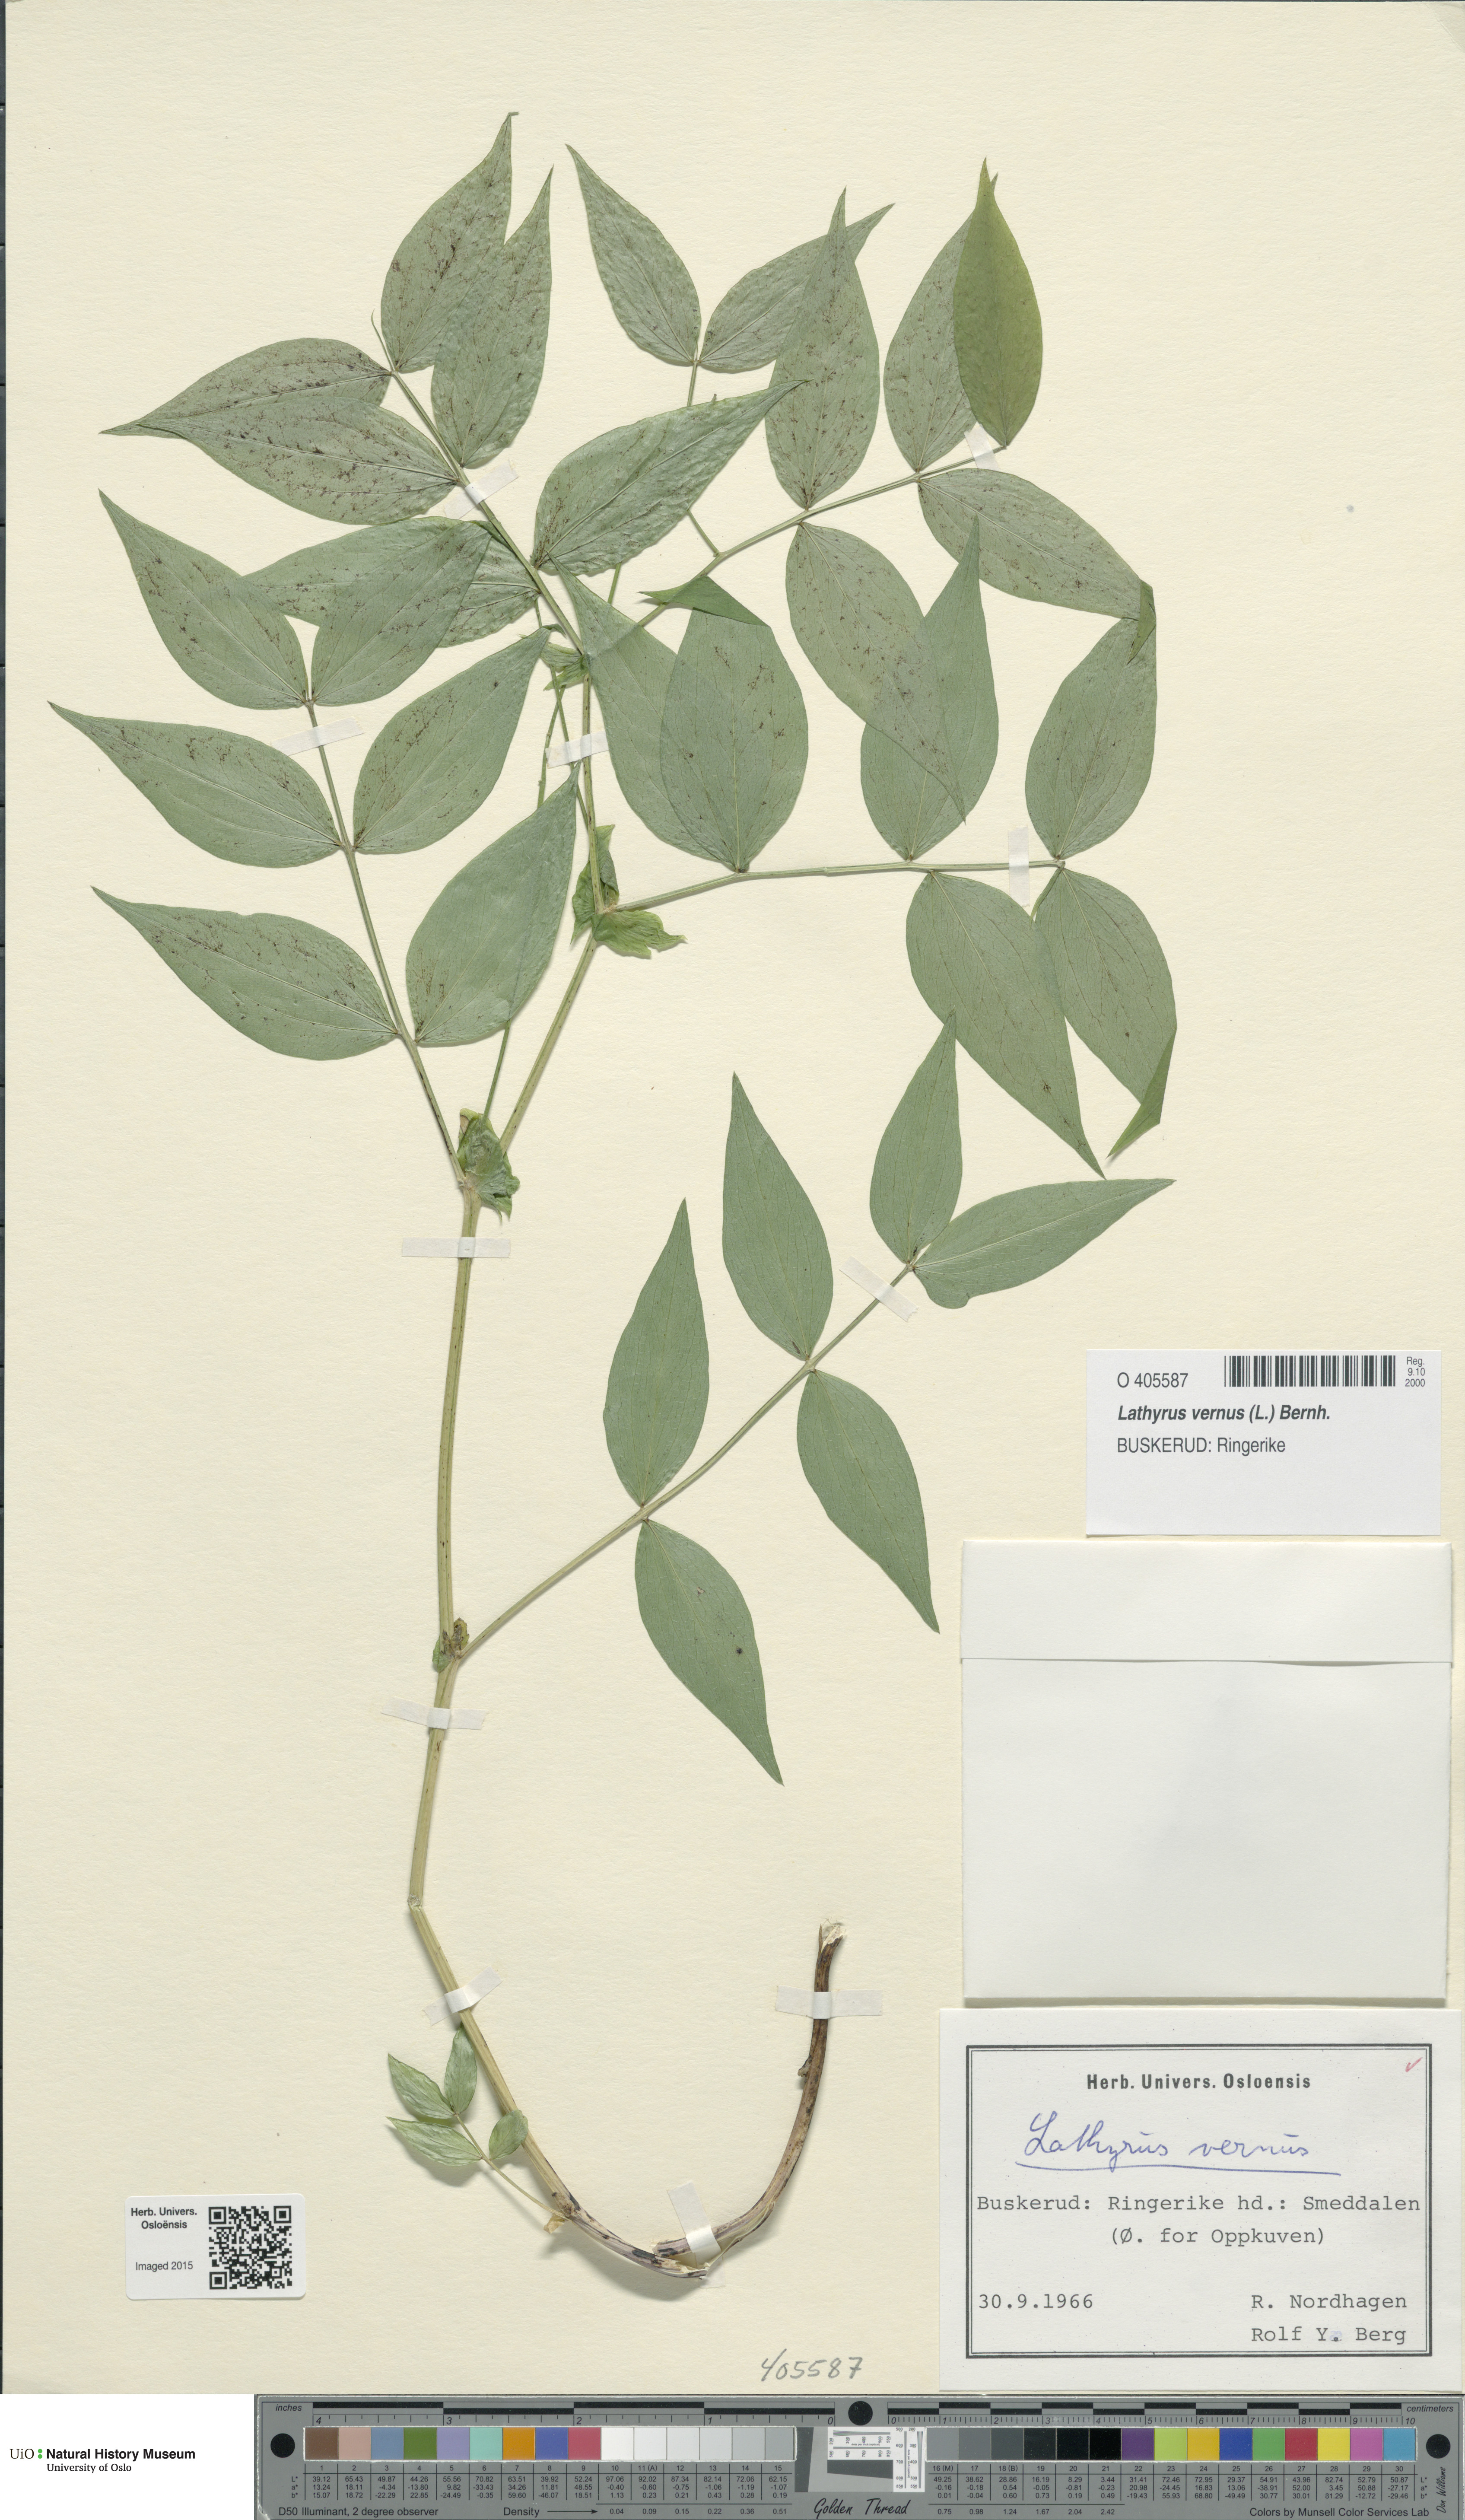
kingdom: Plantae
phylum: Tracheophyta
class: Magnoliopsida
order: Fabales
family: Fabaceae
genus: Lathyrus
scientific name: Lathyrus vernus
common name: Spring pea
